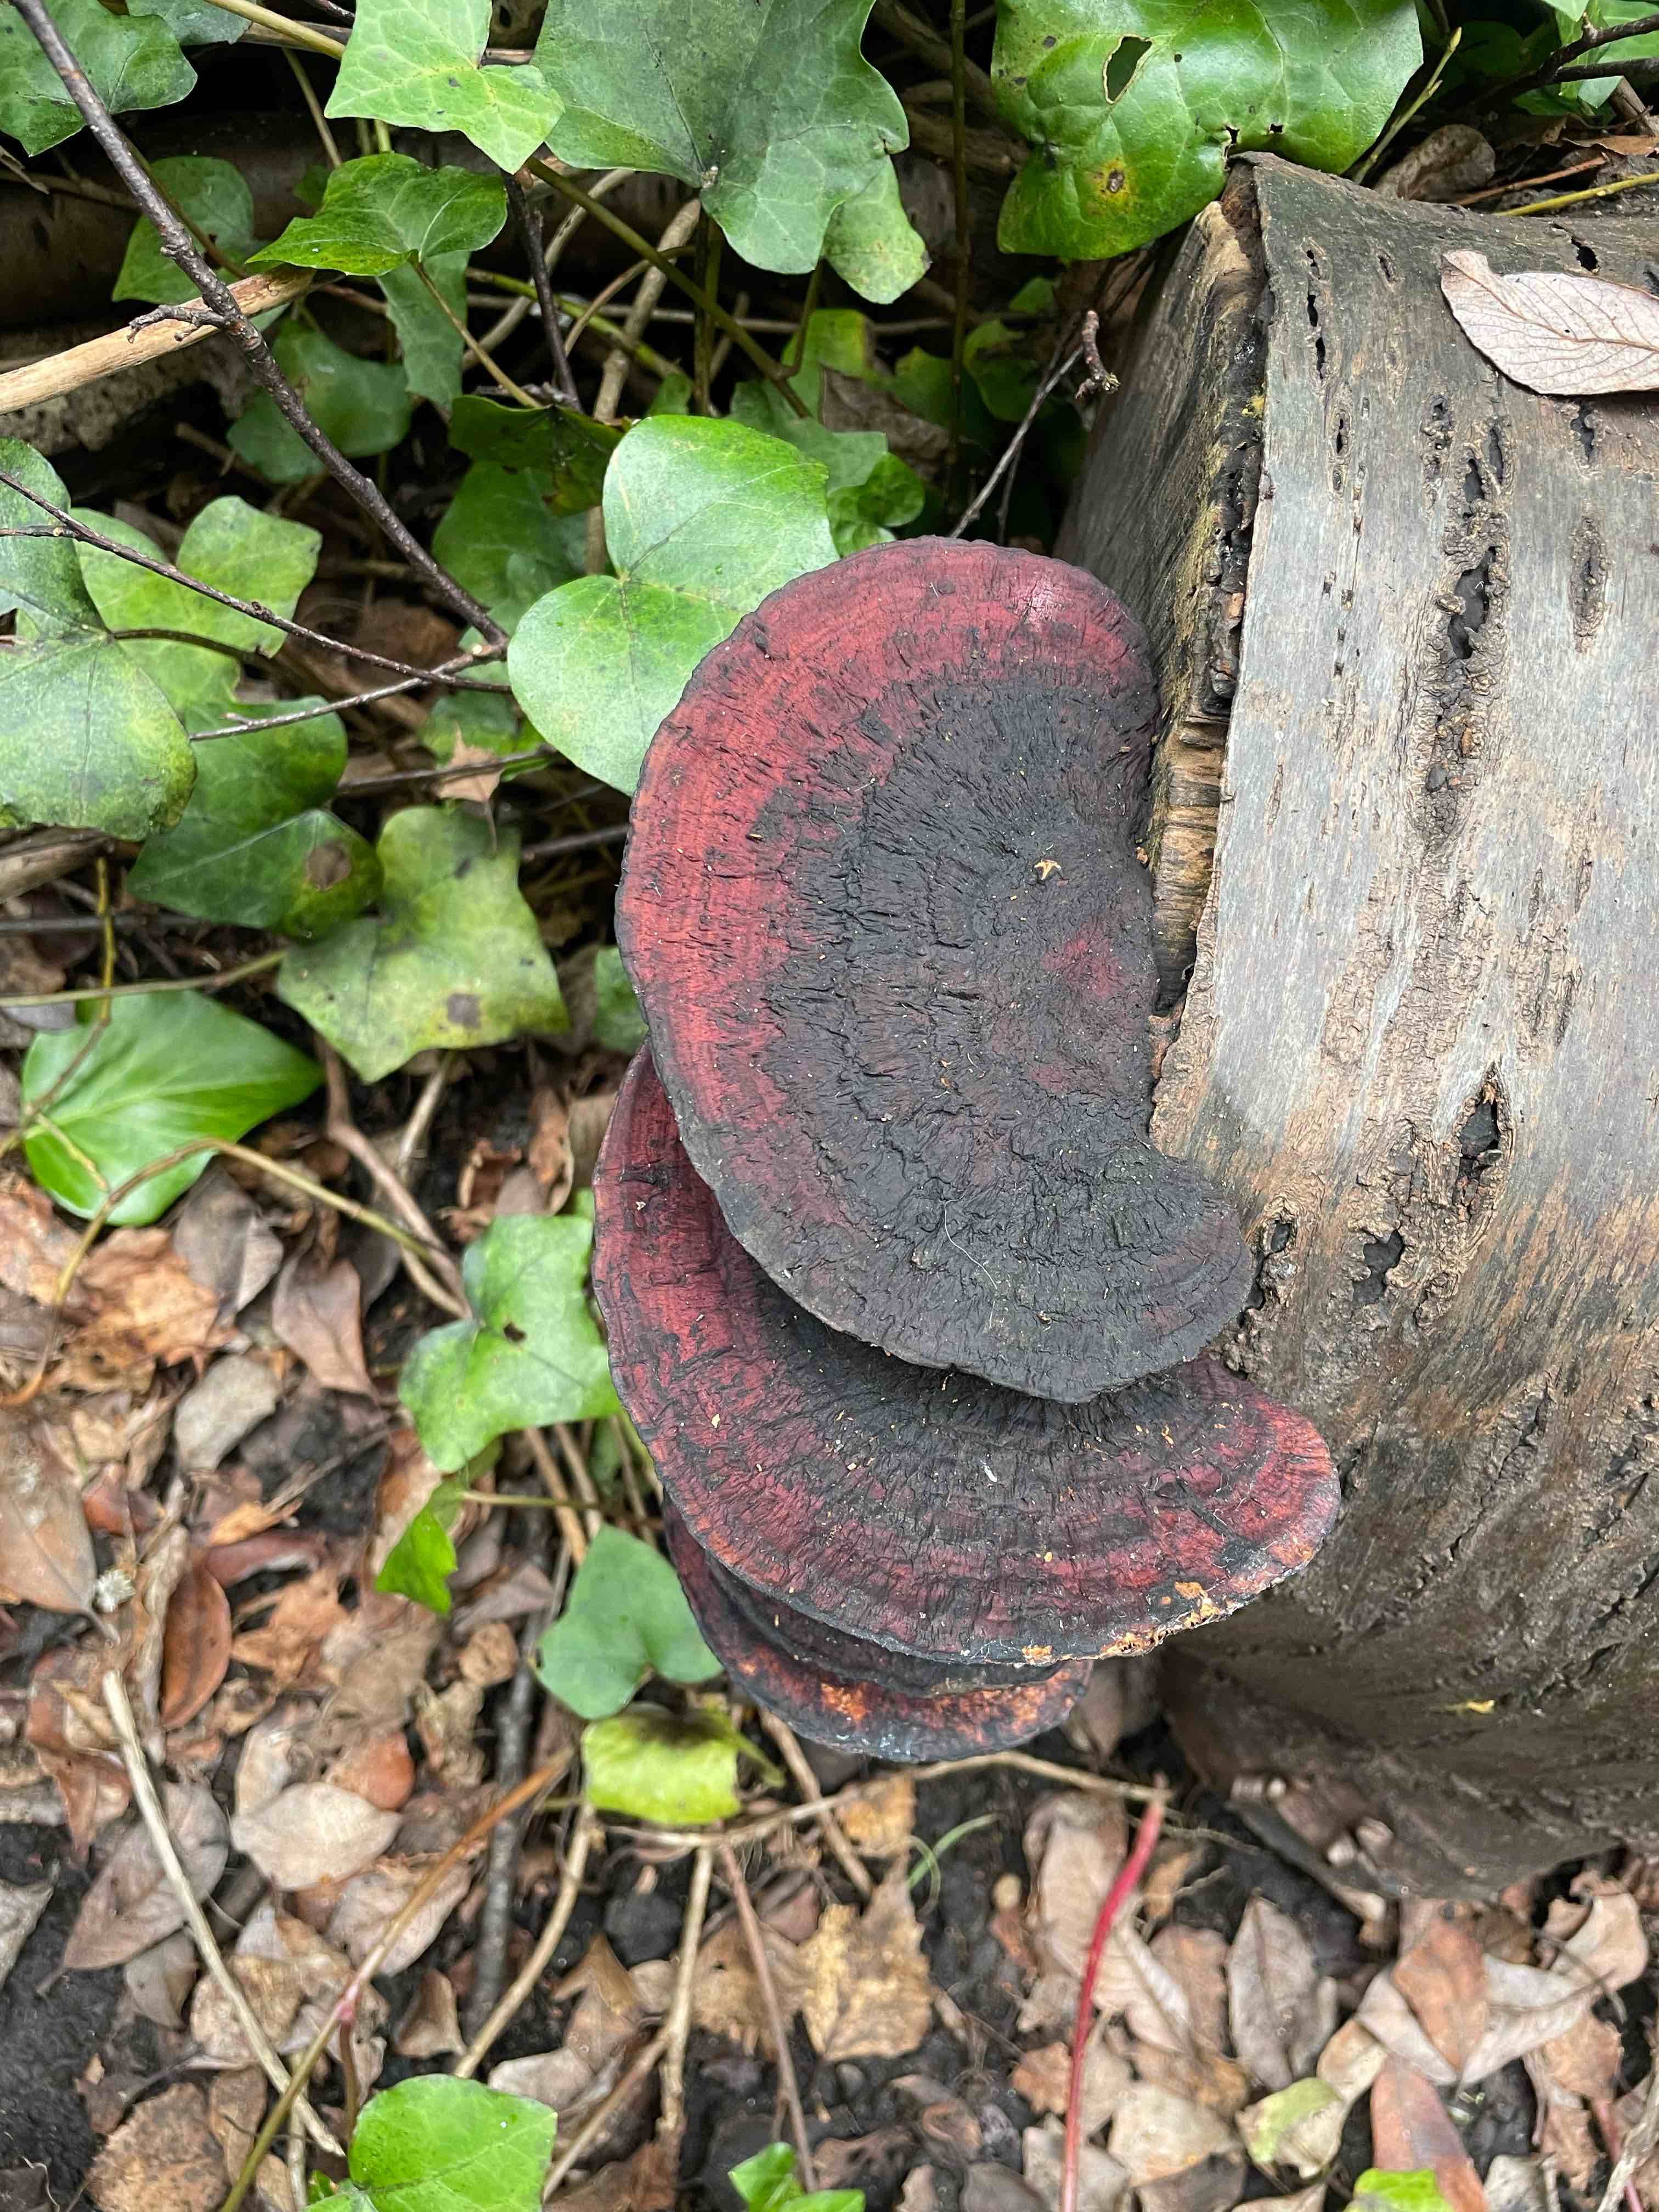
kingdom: Fungi
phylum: Basidiomycota
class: Agaricomycetes
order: Polyporales
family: Polyporaceae
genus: Daedaleopsis
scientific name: Daedaleopsis confragosa
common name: rødmende læderporesvamp
